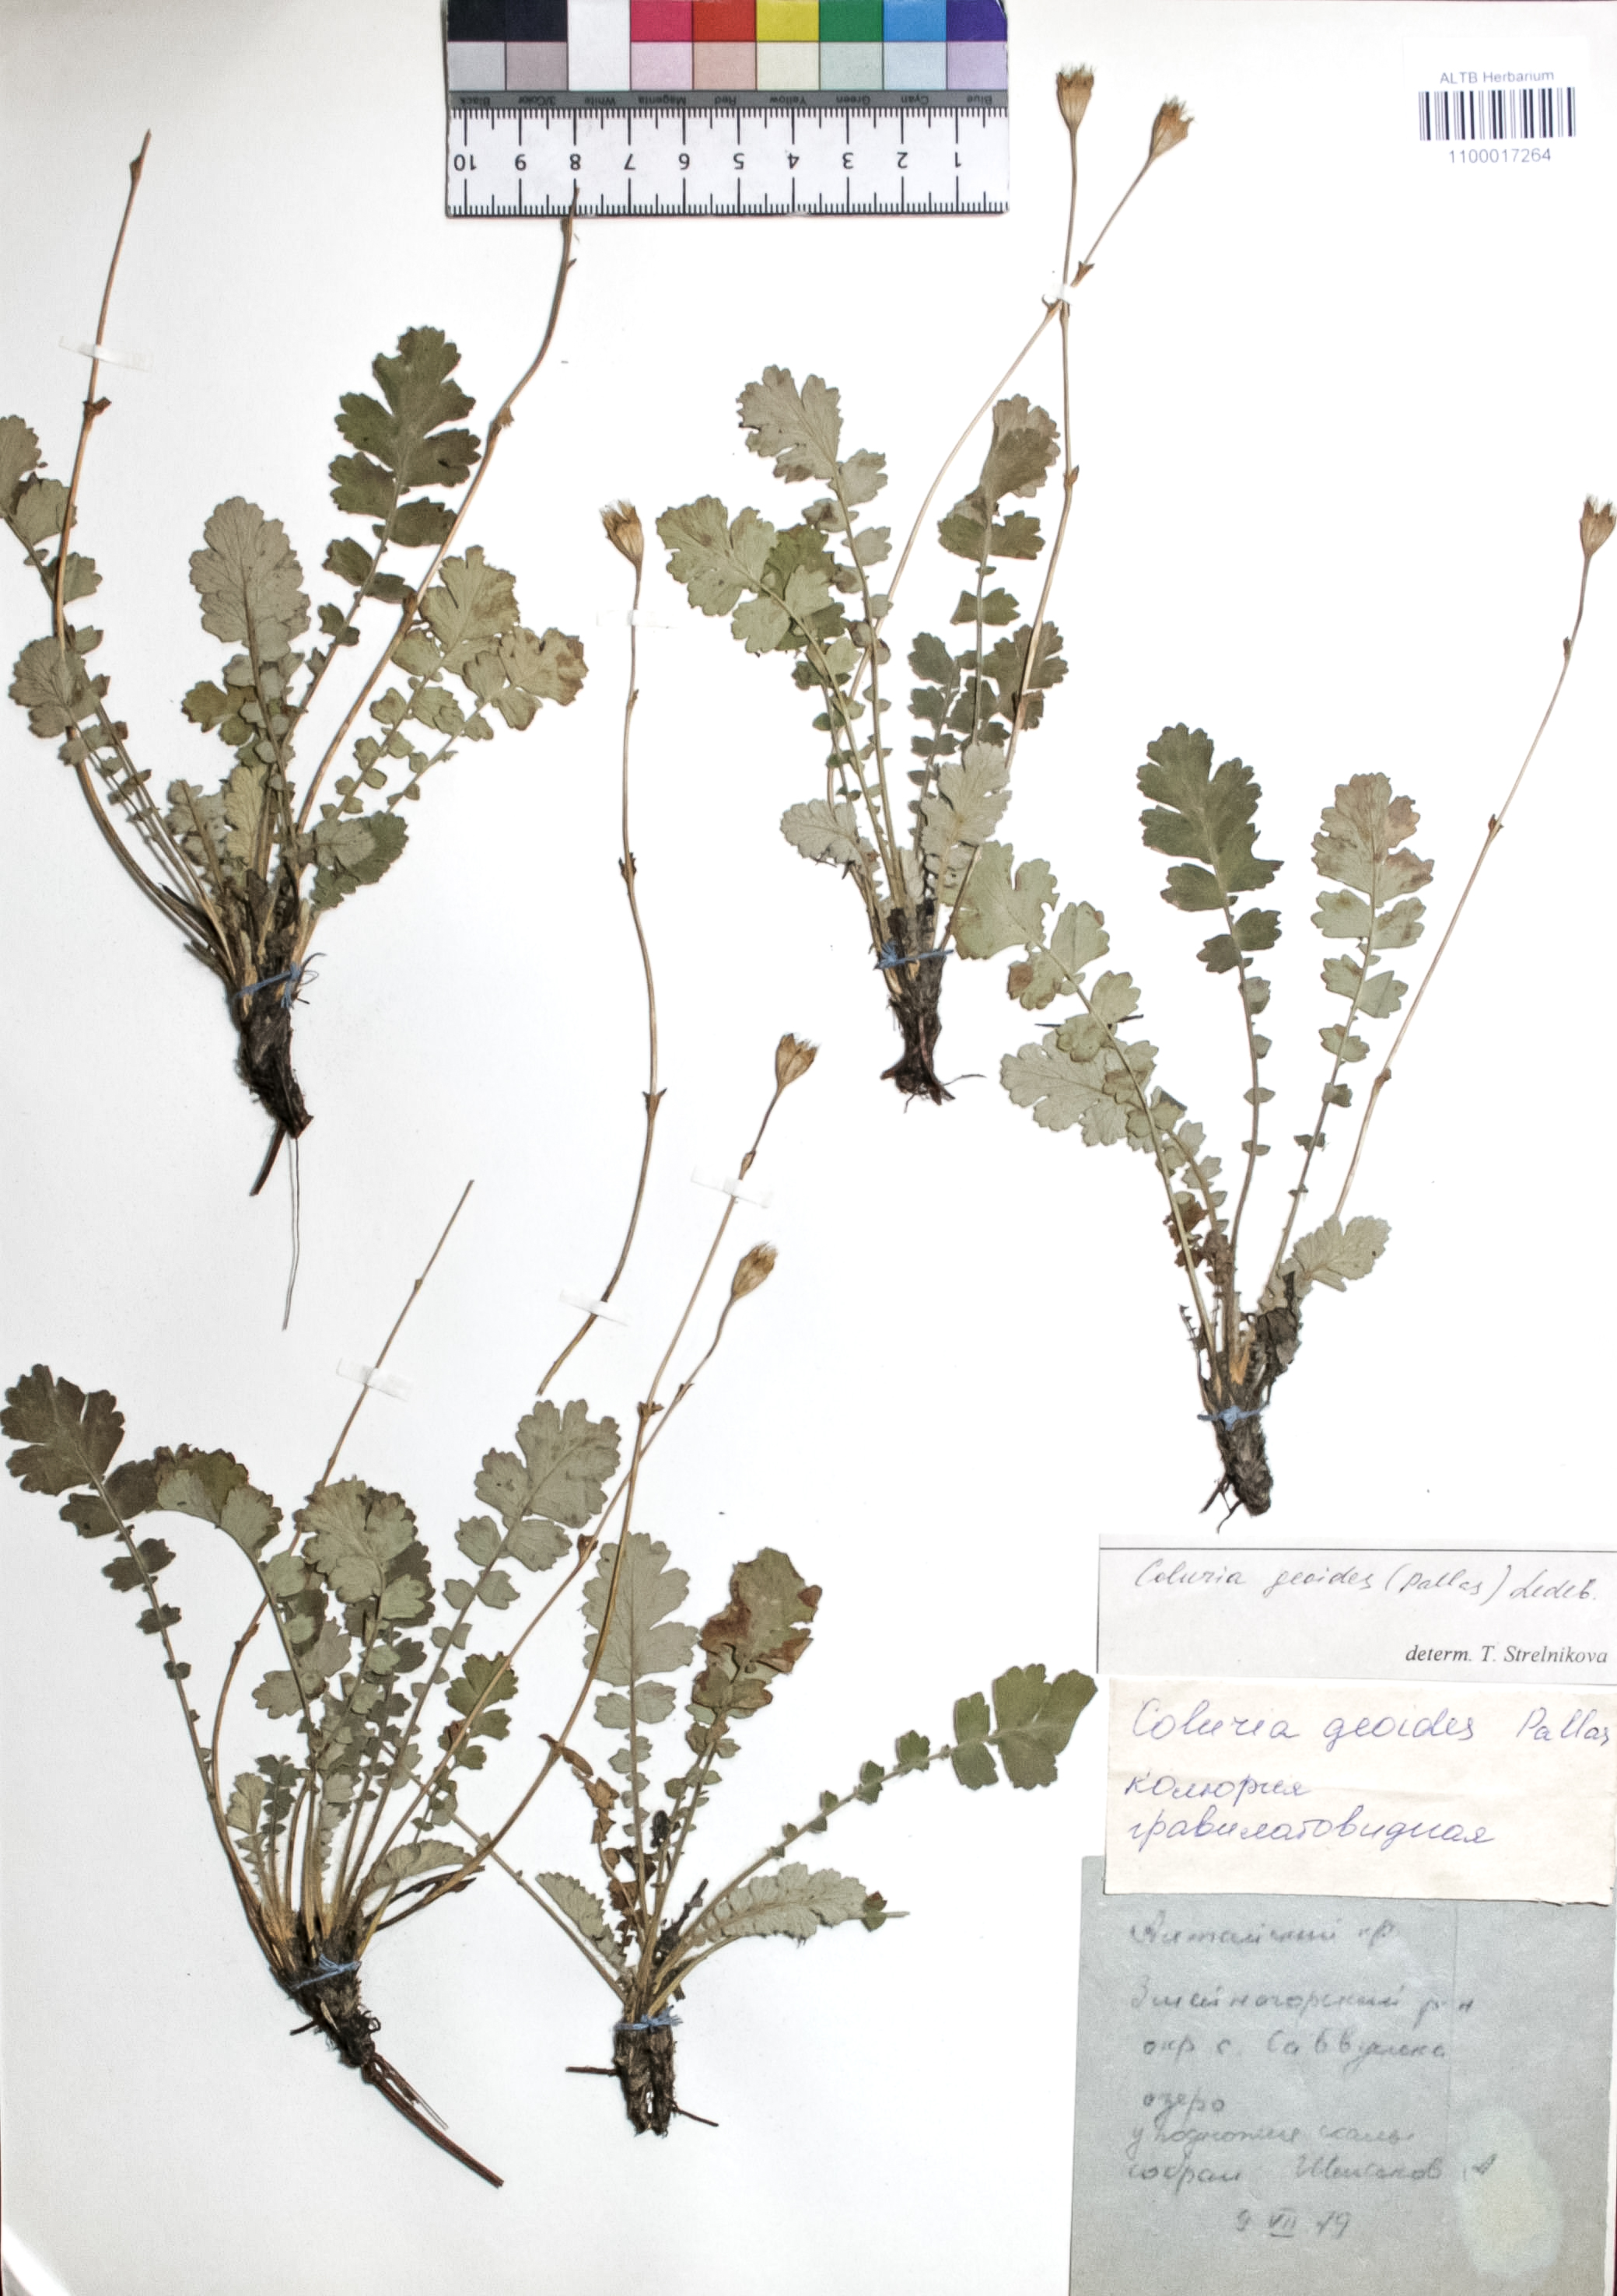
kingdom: Plantae
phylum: Tracheophyta
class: Magnoliopsida
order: Rosales
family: Rosaceae
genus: Geum
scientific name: Geum geoides
